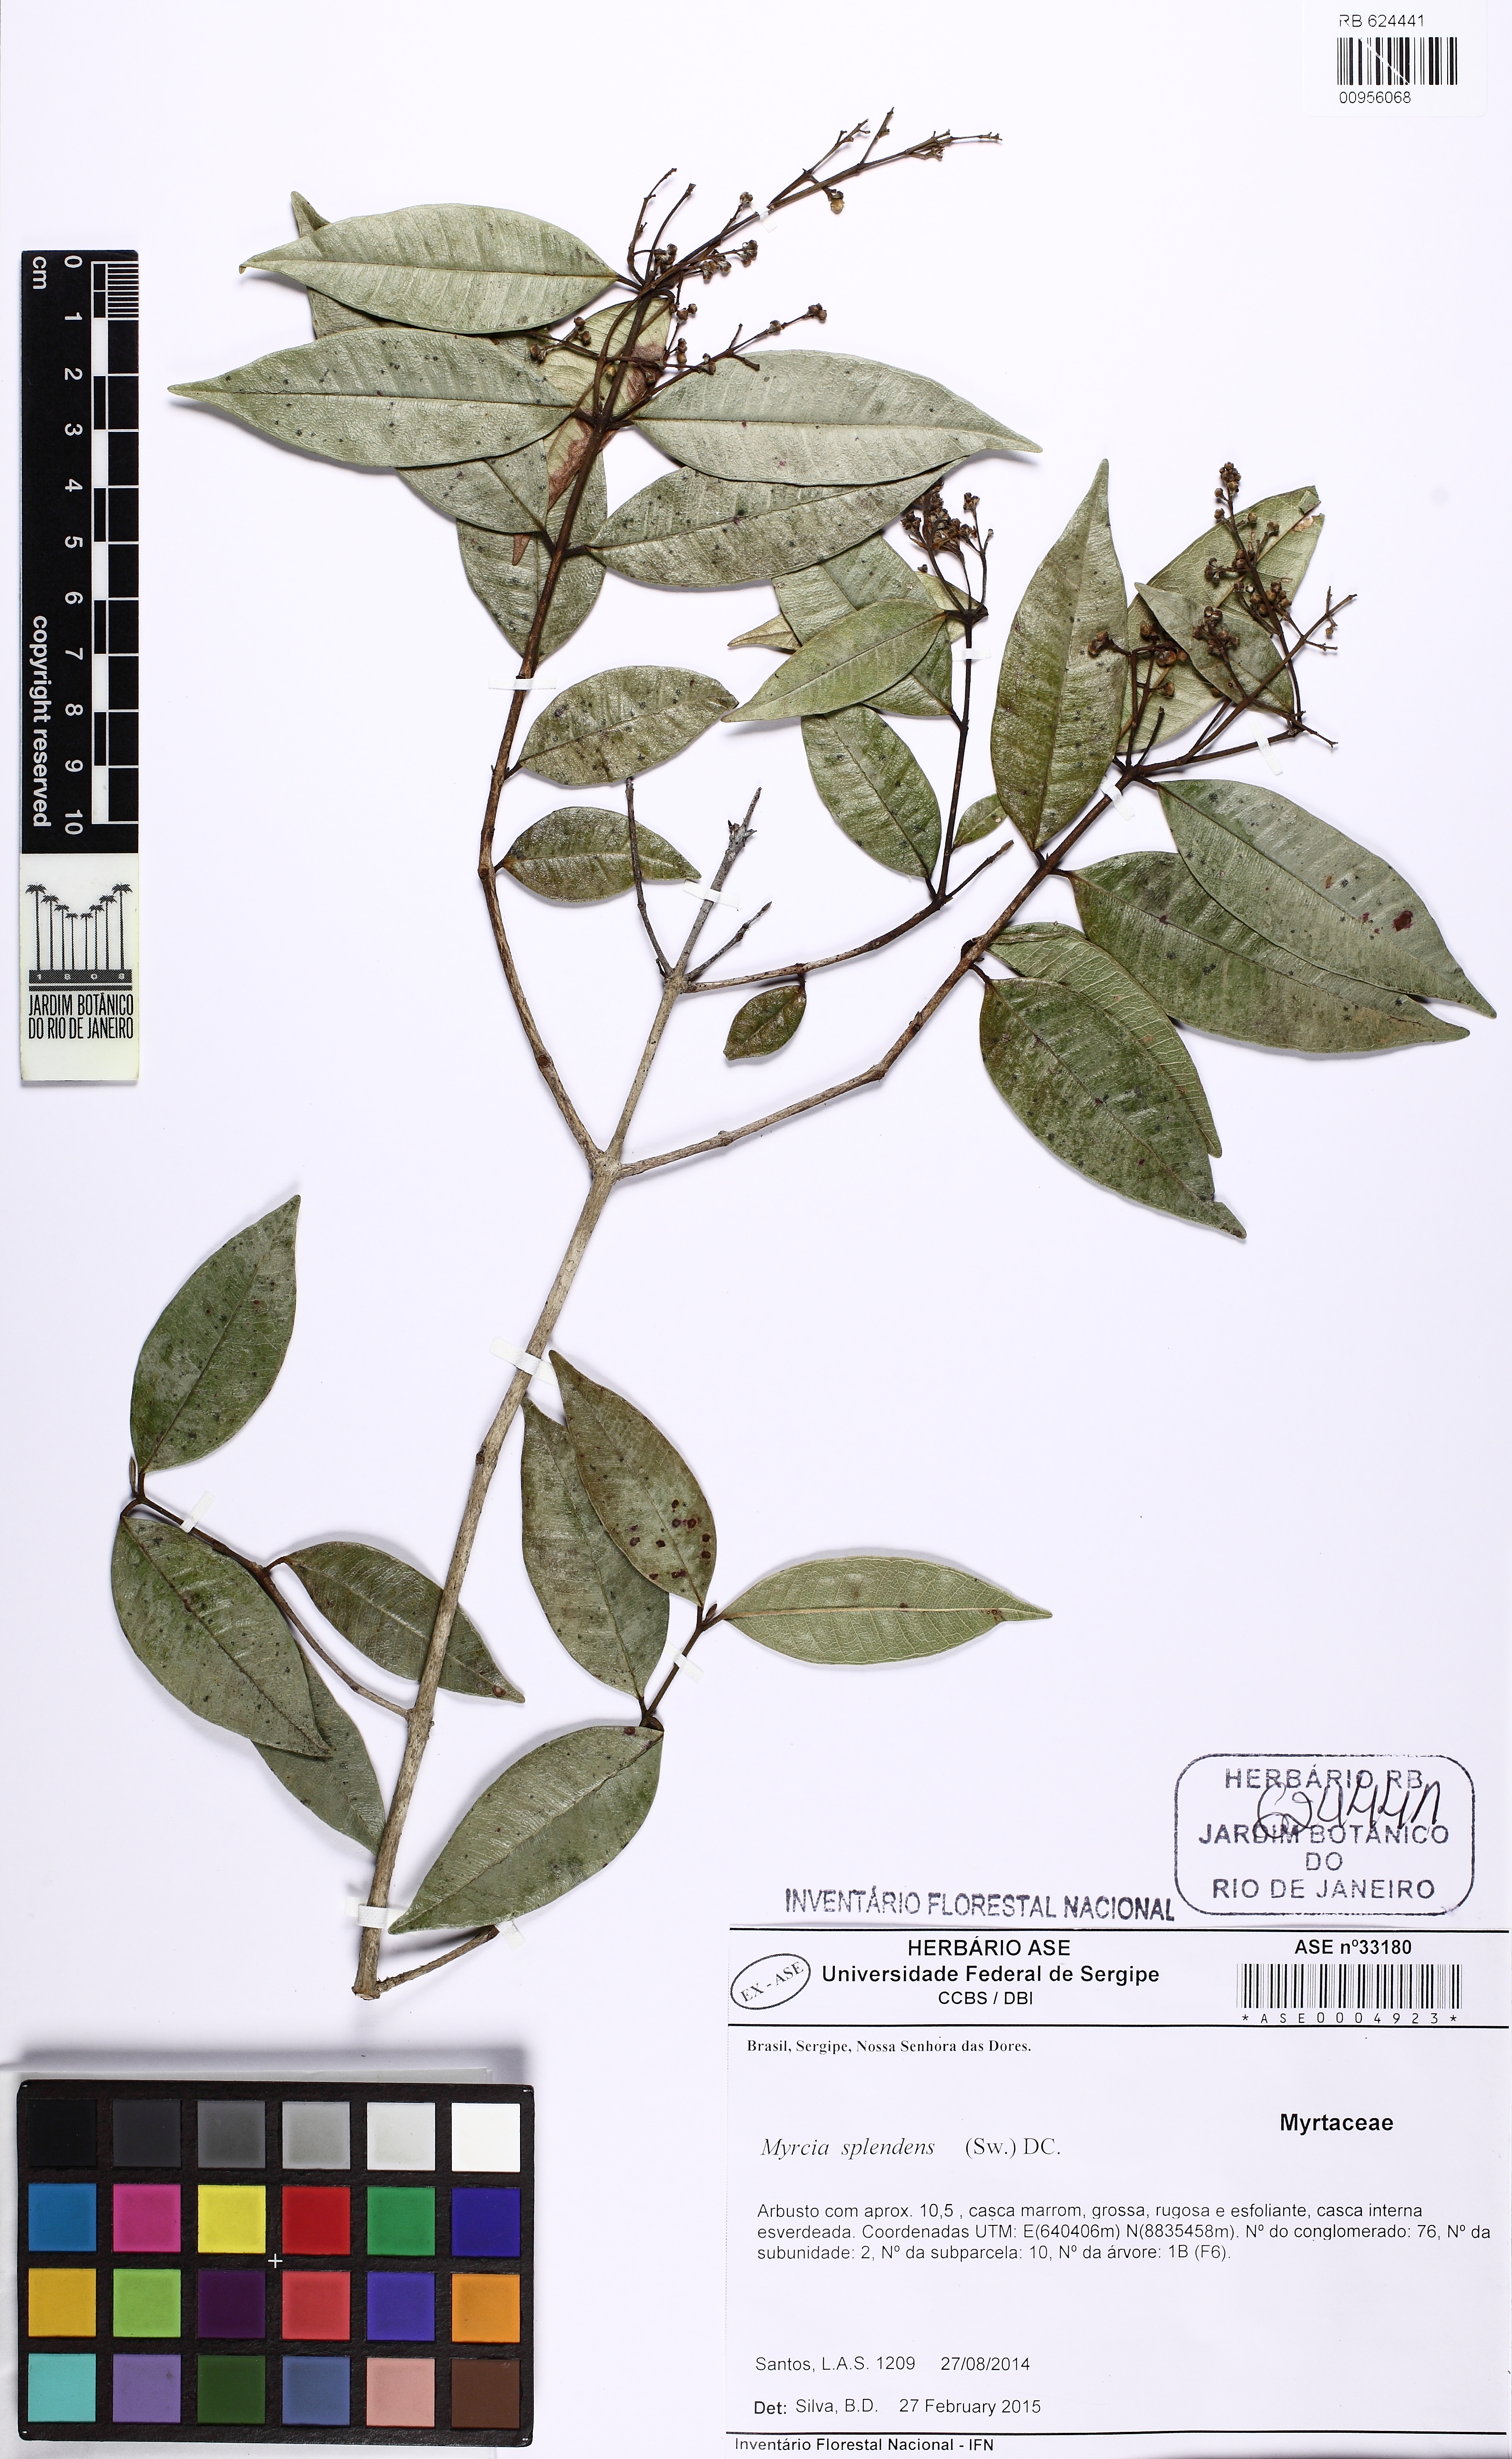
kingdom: Plantae
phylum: Tracheophyta
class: Magnoliopsida
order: Myrtales
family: Myrtaceae
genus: Myrcia
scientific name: Myrcia splendens
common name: Surinam cherry
